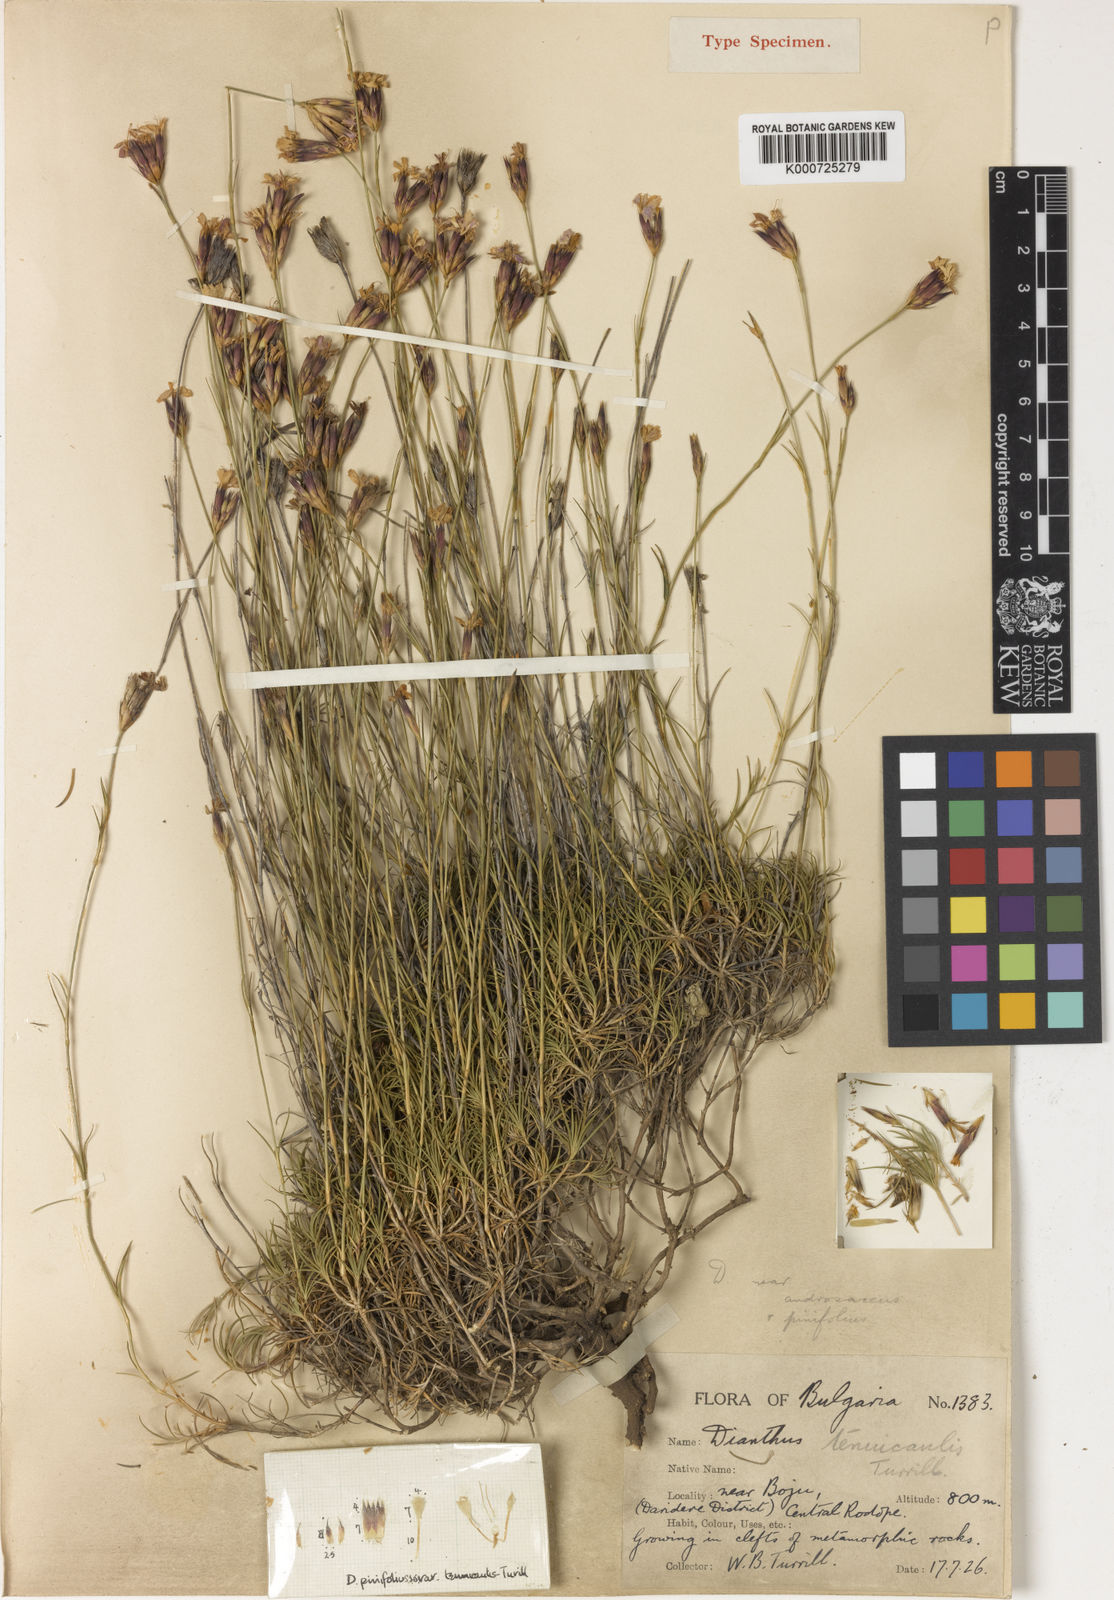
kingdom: Plantae
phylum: Tracheophyta
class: Magnoliopsida
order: Caryophyllales
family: Caryophyllaceae
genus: Dianthus
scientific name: Dianthus pinifolius
